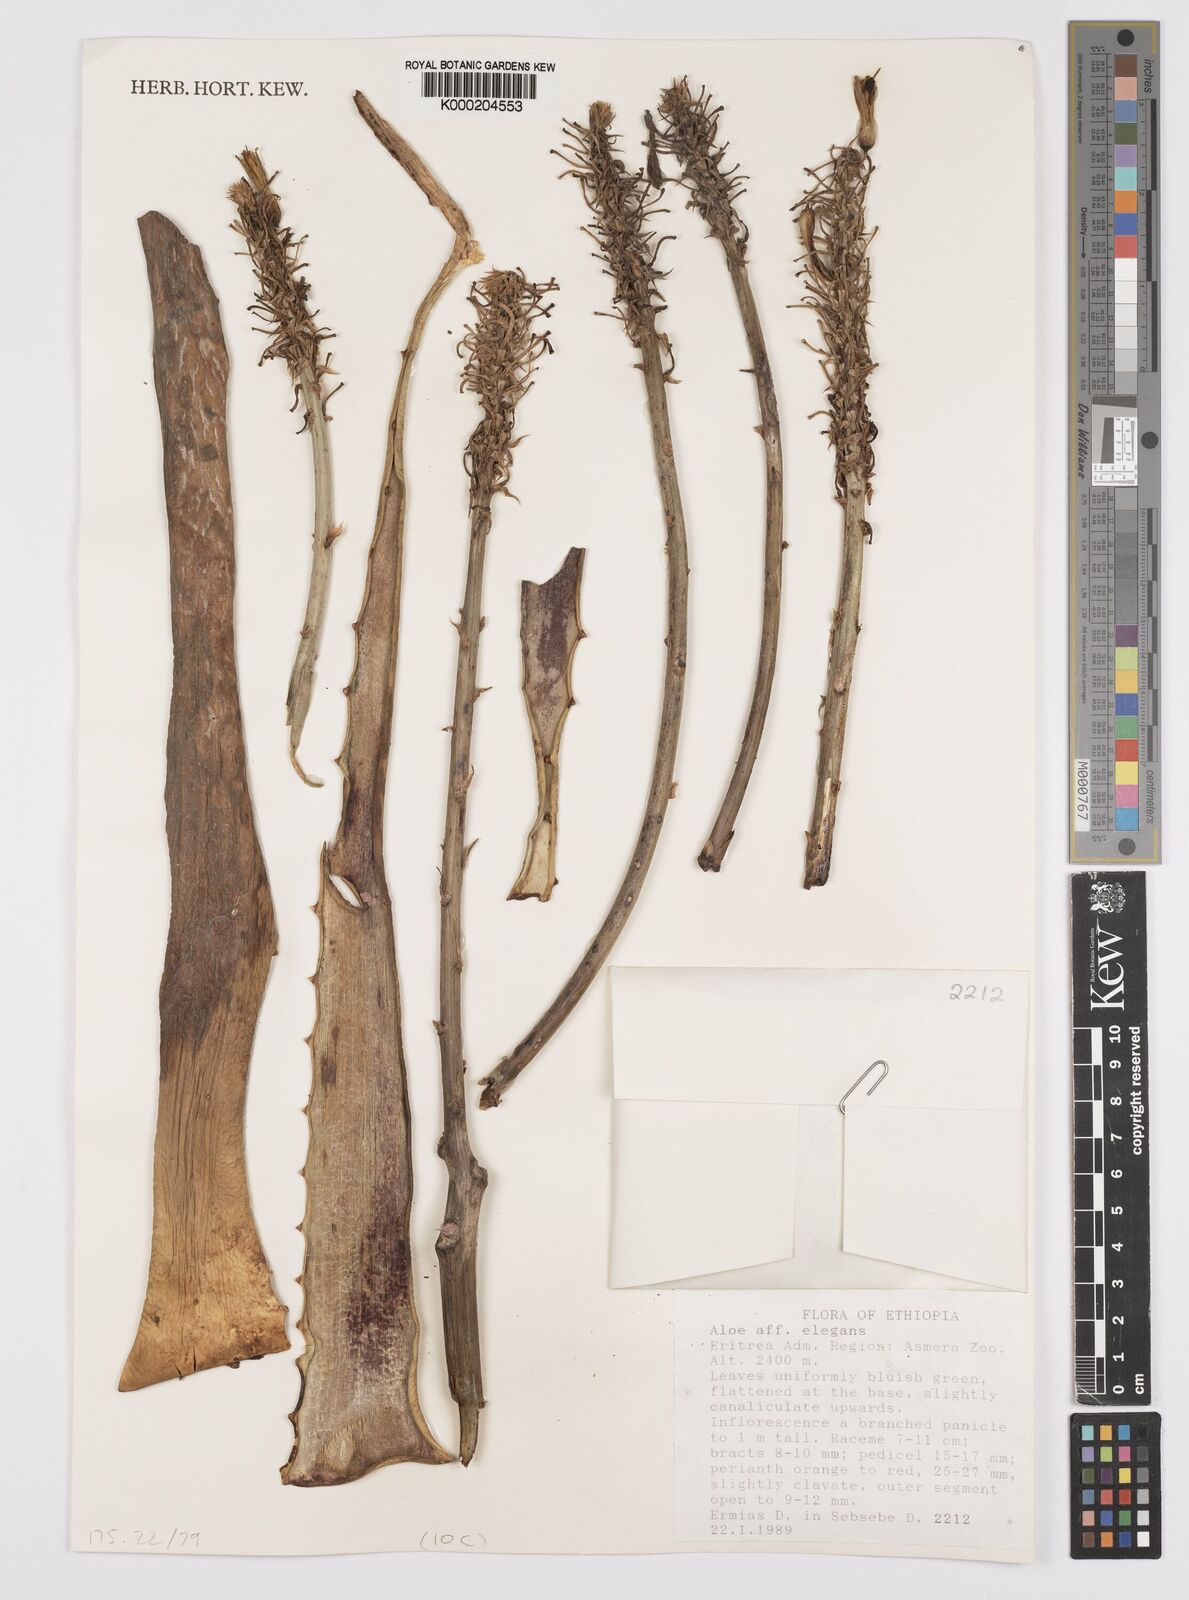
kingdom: Plantae
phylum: Tracheophyta
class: Liliopsida
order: Asparagales
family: Asphodelaceae
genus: Aloe
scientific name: Aloe elegans
